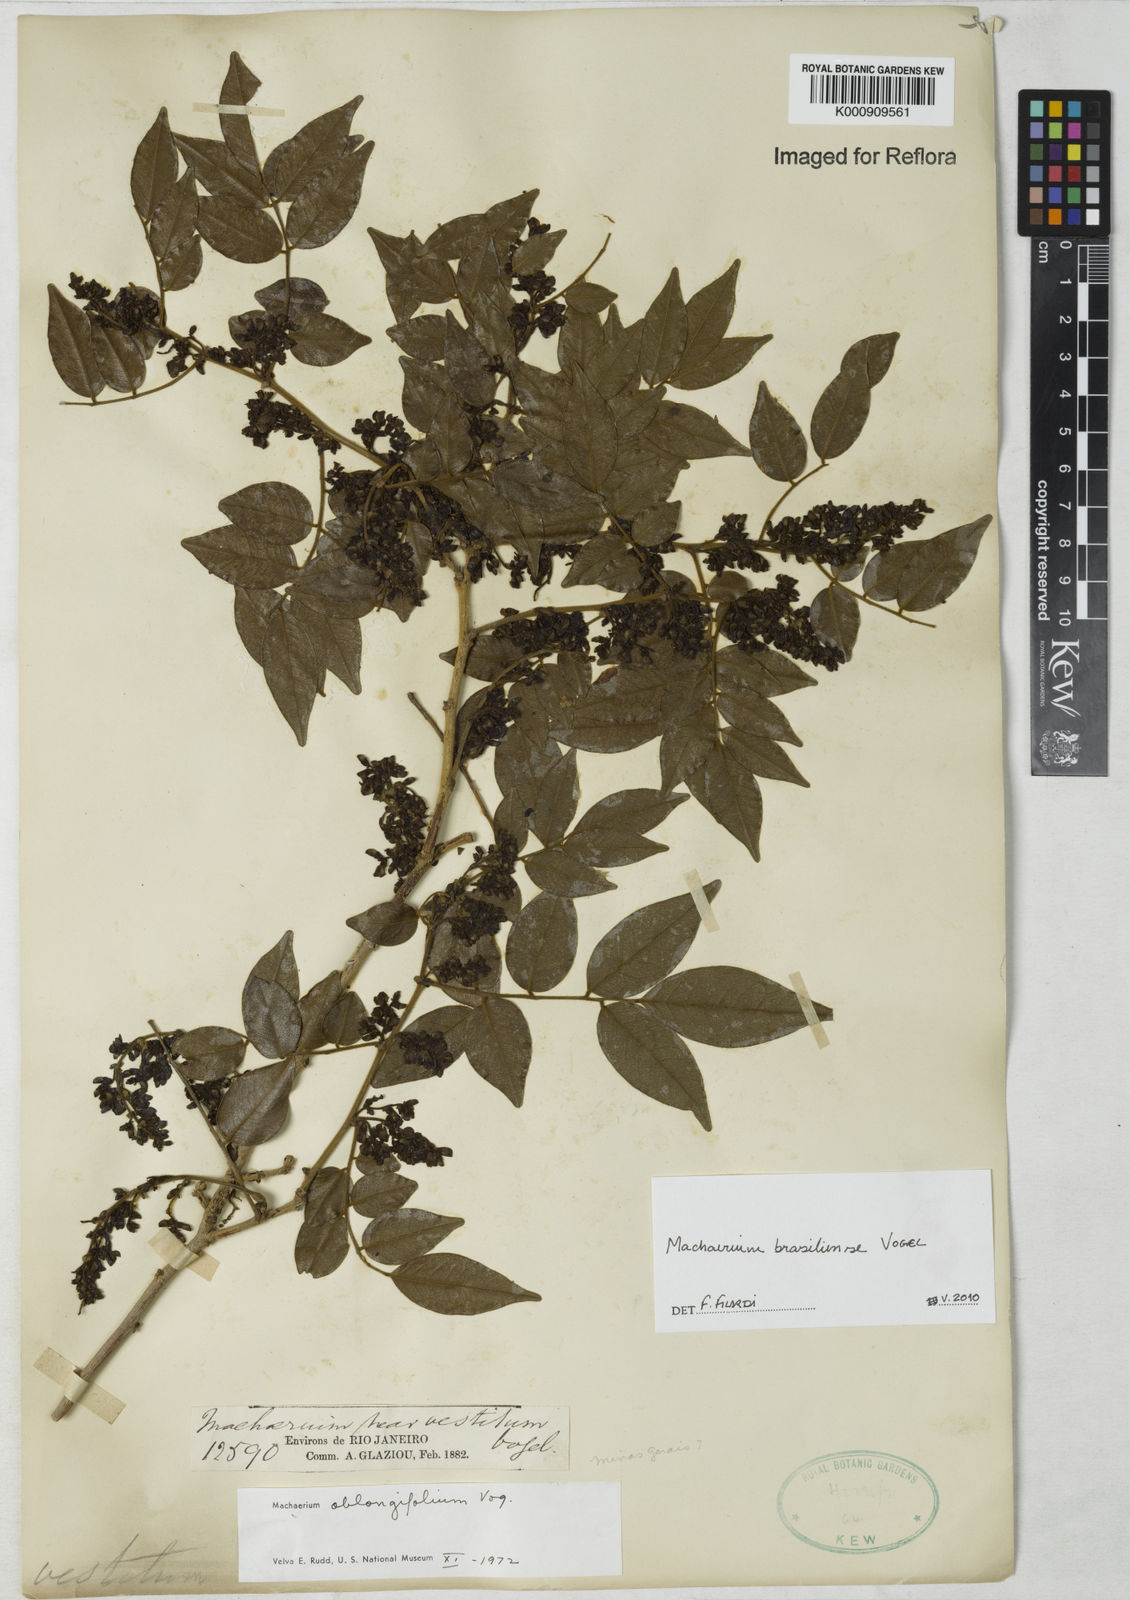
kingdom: Plantae
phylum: Tracheophyta
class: Magnoliopsida
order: Fabales
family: Fabaceae
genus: Machaerium
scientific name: Machaerium brasiliense
